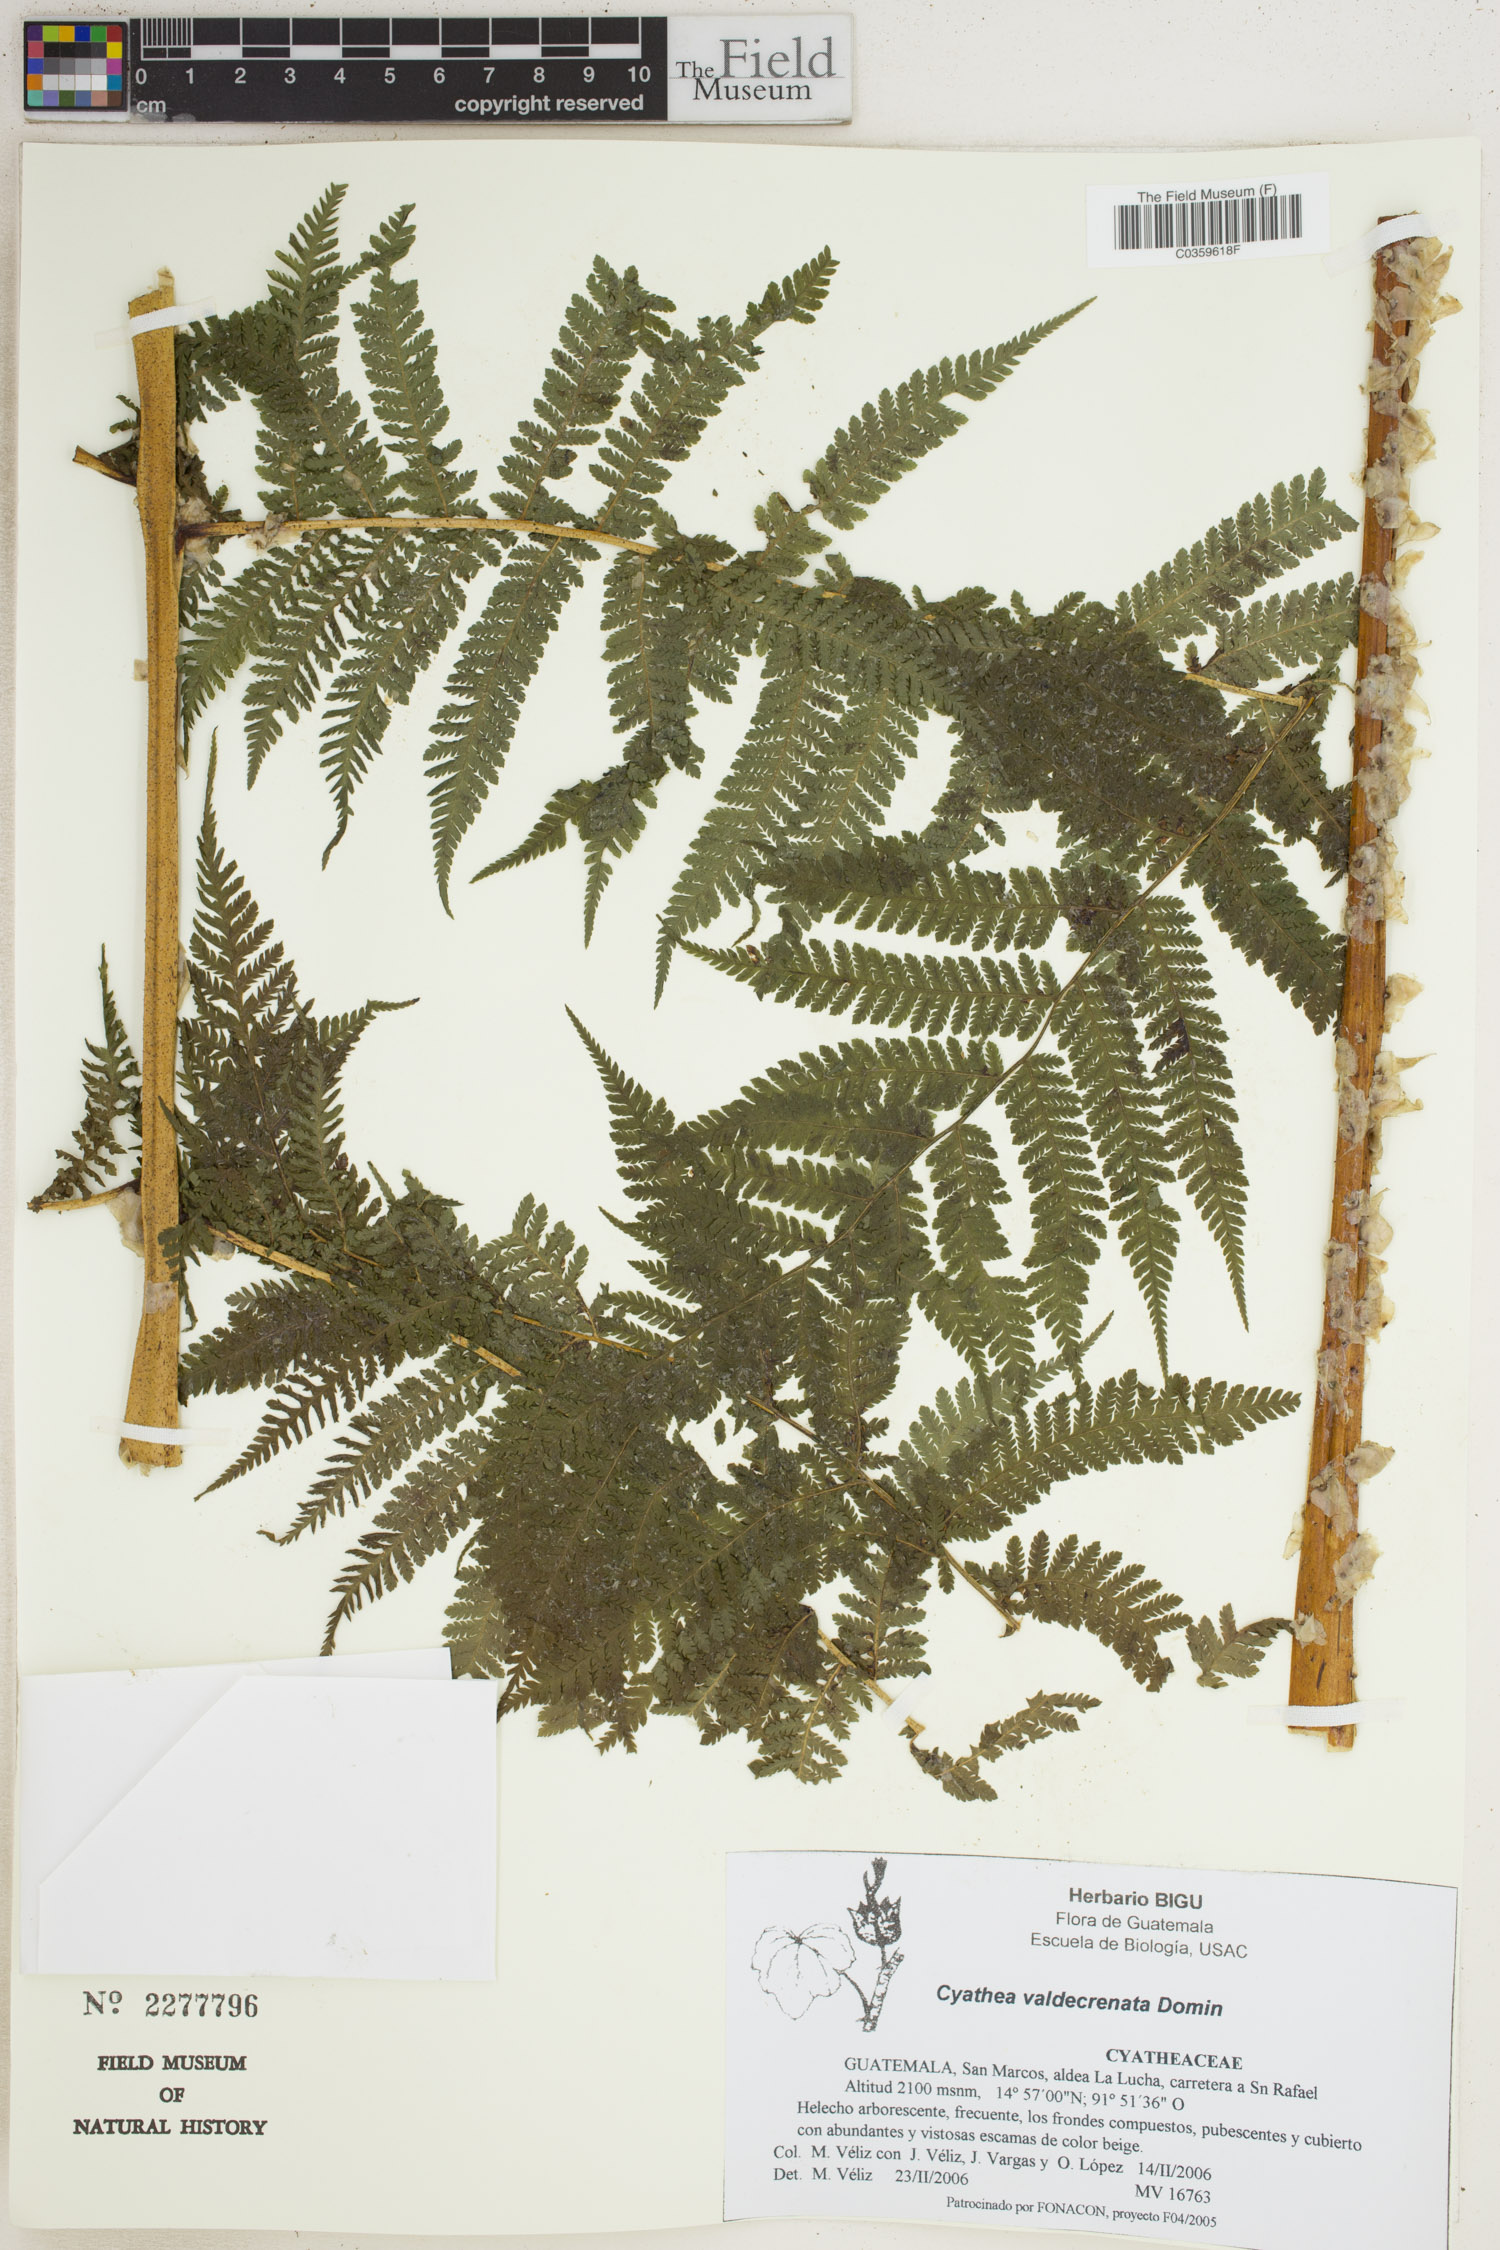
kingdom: Plantae
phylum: Tracheophyta
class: Polypodiopsida
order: Cyatheales
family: Cyatheaceae
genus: Cyathea
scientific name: Cyathea godmanii
